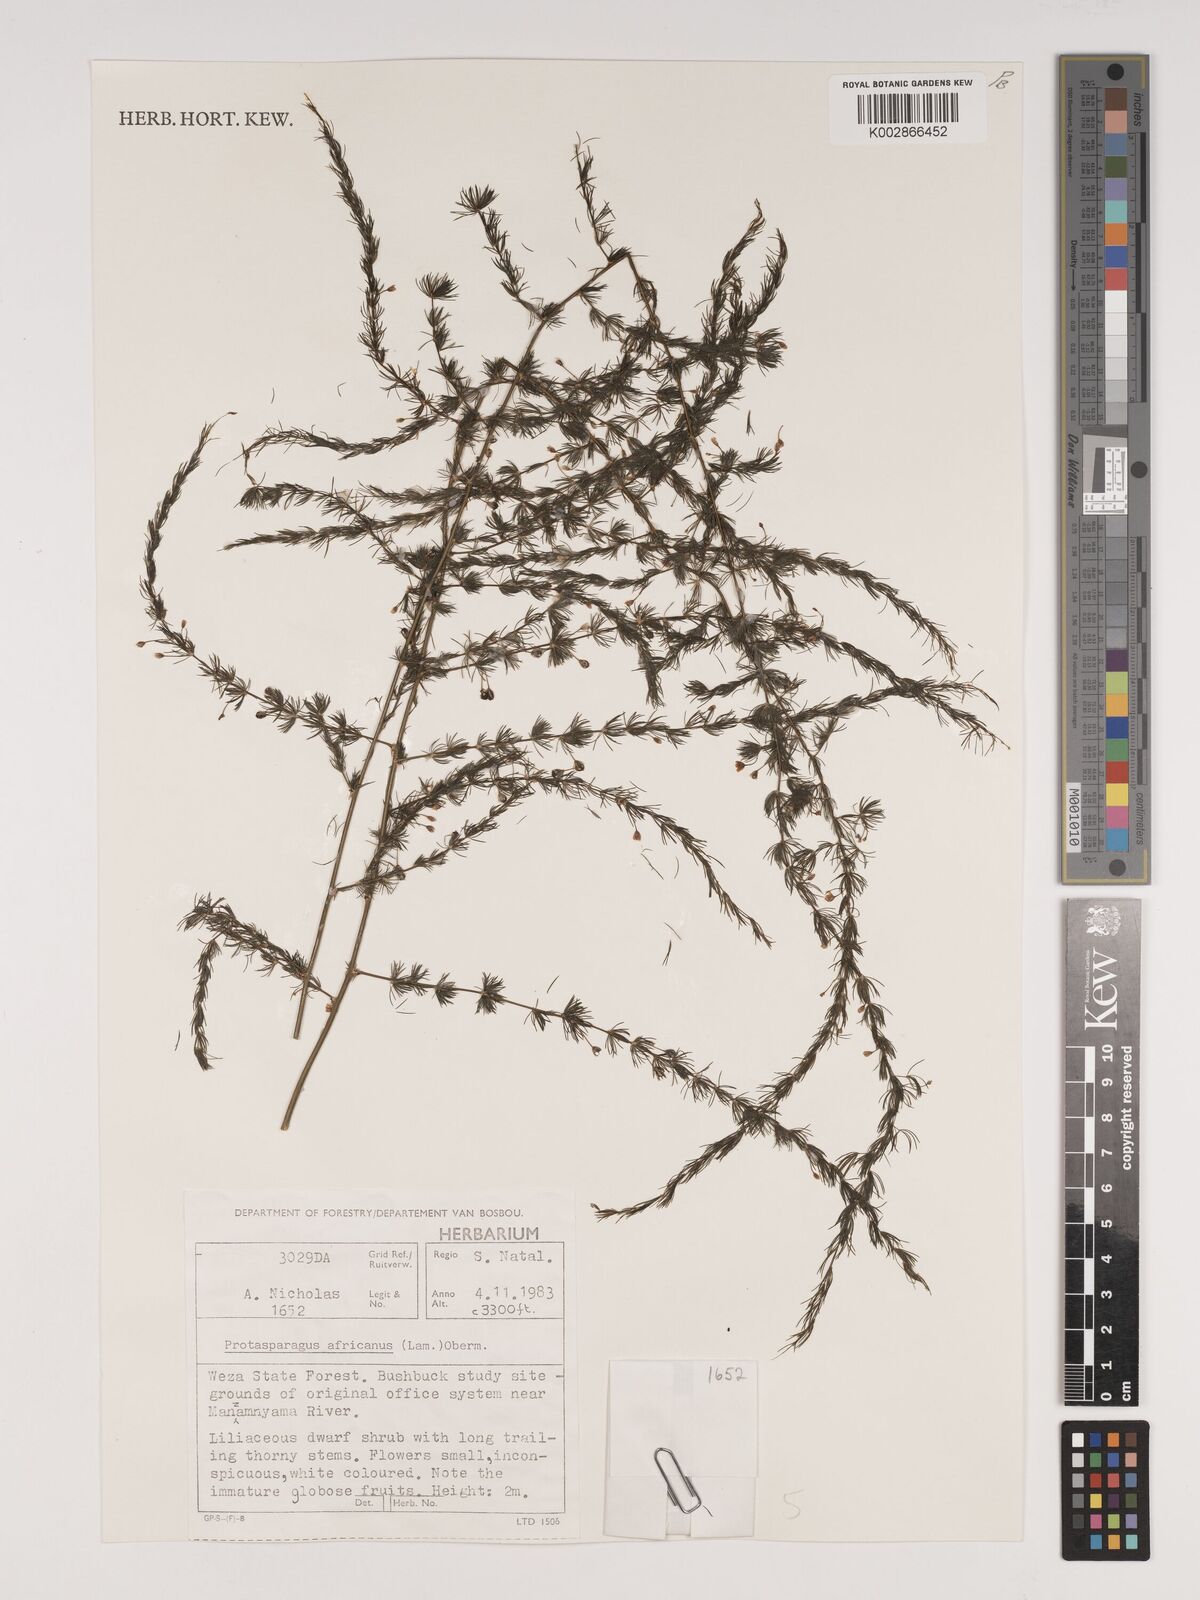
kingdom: Plantae
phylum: Tracheophyta
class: Liliopsida
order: Asparagales
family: Asparagaceae
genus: Asparagus
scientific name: Asparagus africanus
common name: Asparagus-fern
